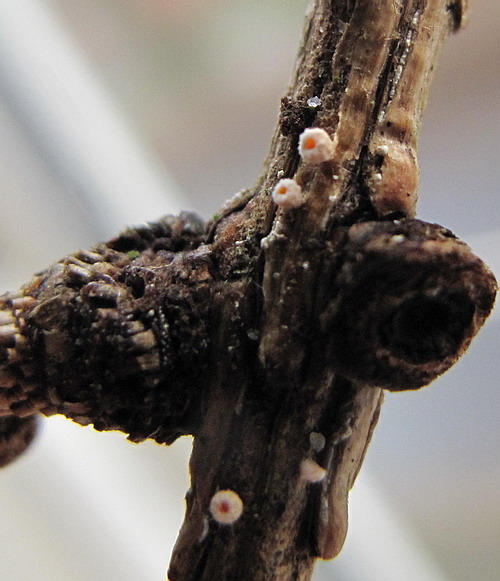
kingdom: Fungi
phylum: Ascomycota
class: Leotiomycetes
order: Helotiales
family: Lachnaceae
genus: Lachnellula
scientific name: Lachnellula occidentalis
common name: Larch disco
